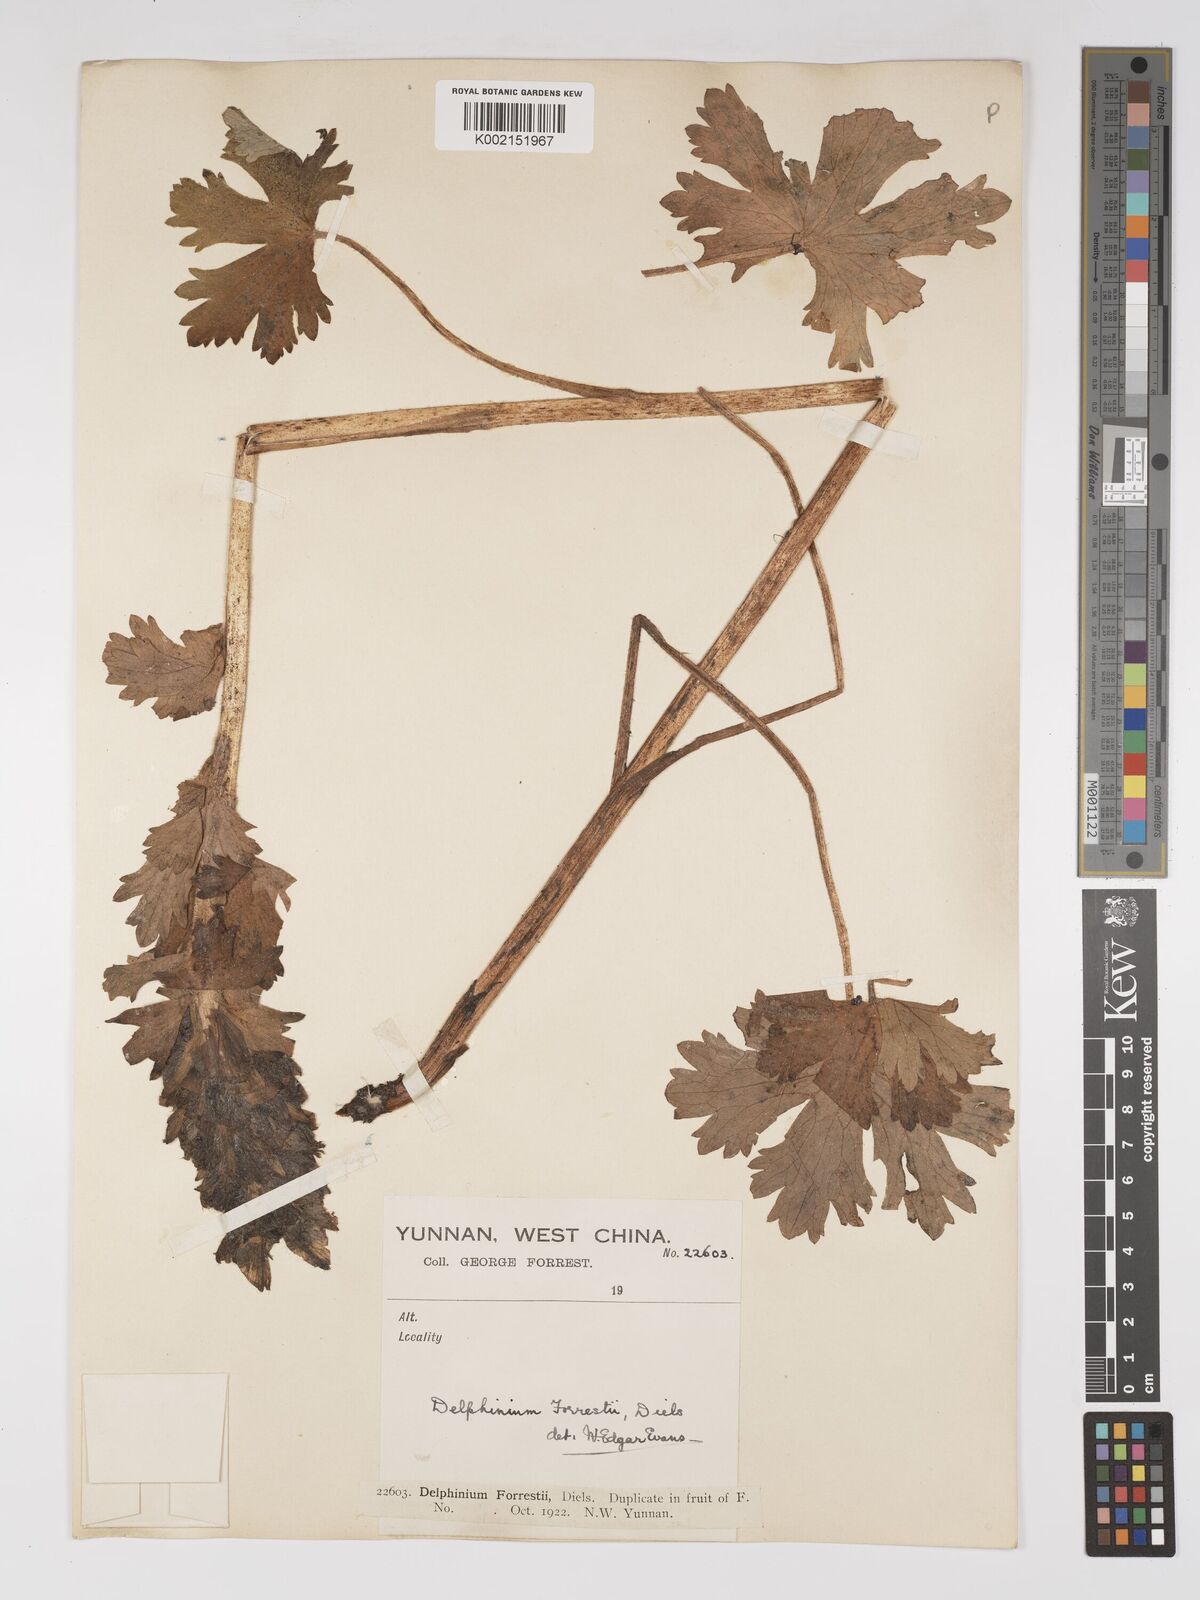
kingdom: Plantae
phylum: Tracheophyta
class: Magnoliopsida
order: Ranunculales
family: Ranunculaceae
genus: Delphinium
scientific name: Delphinium forrestii
